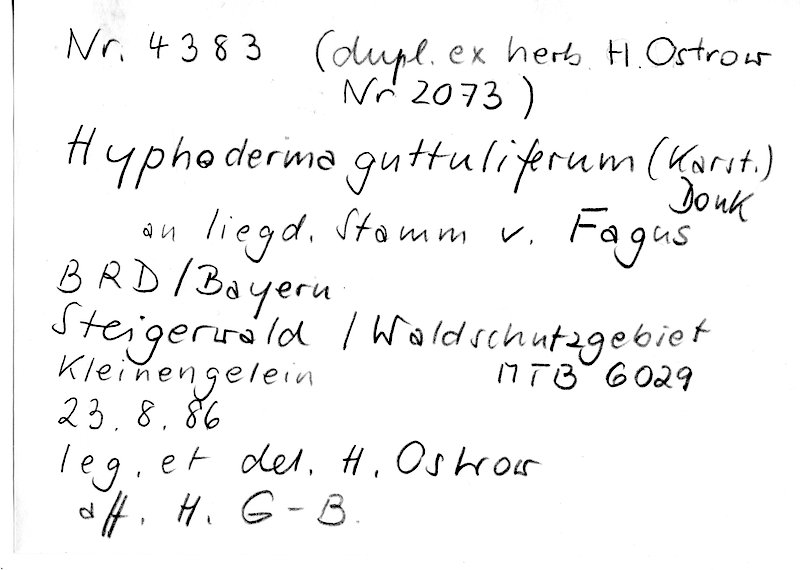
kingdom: Plantae
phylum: Tracheophyta
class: Magnoliopsida
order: Fagales
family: Fagaceae
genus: Fagus
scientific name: Fagus sylvatica
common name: Beech
